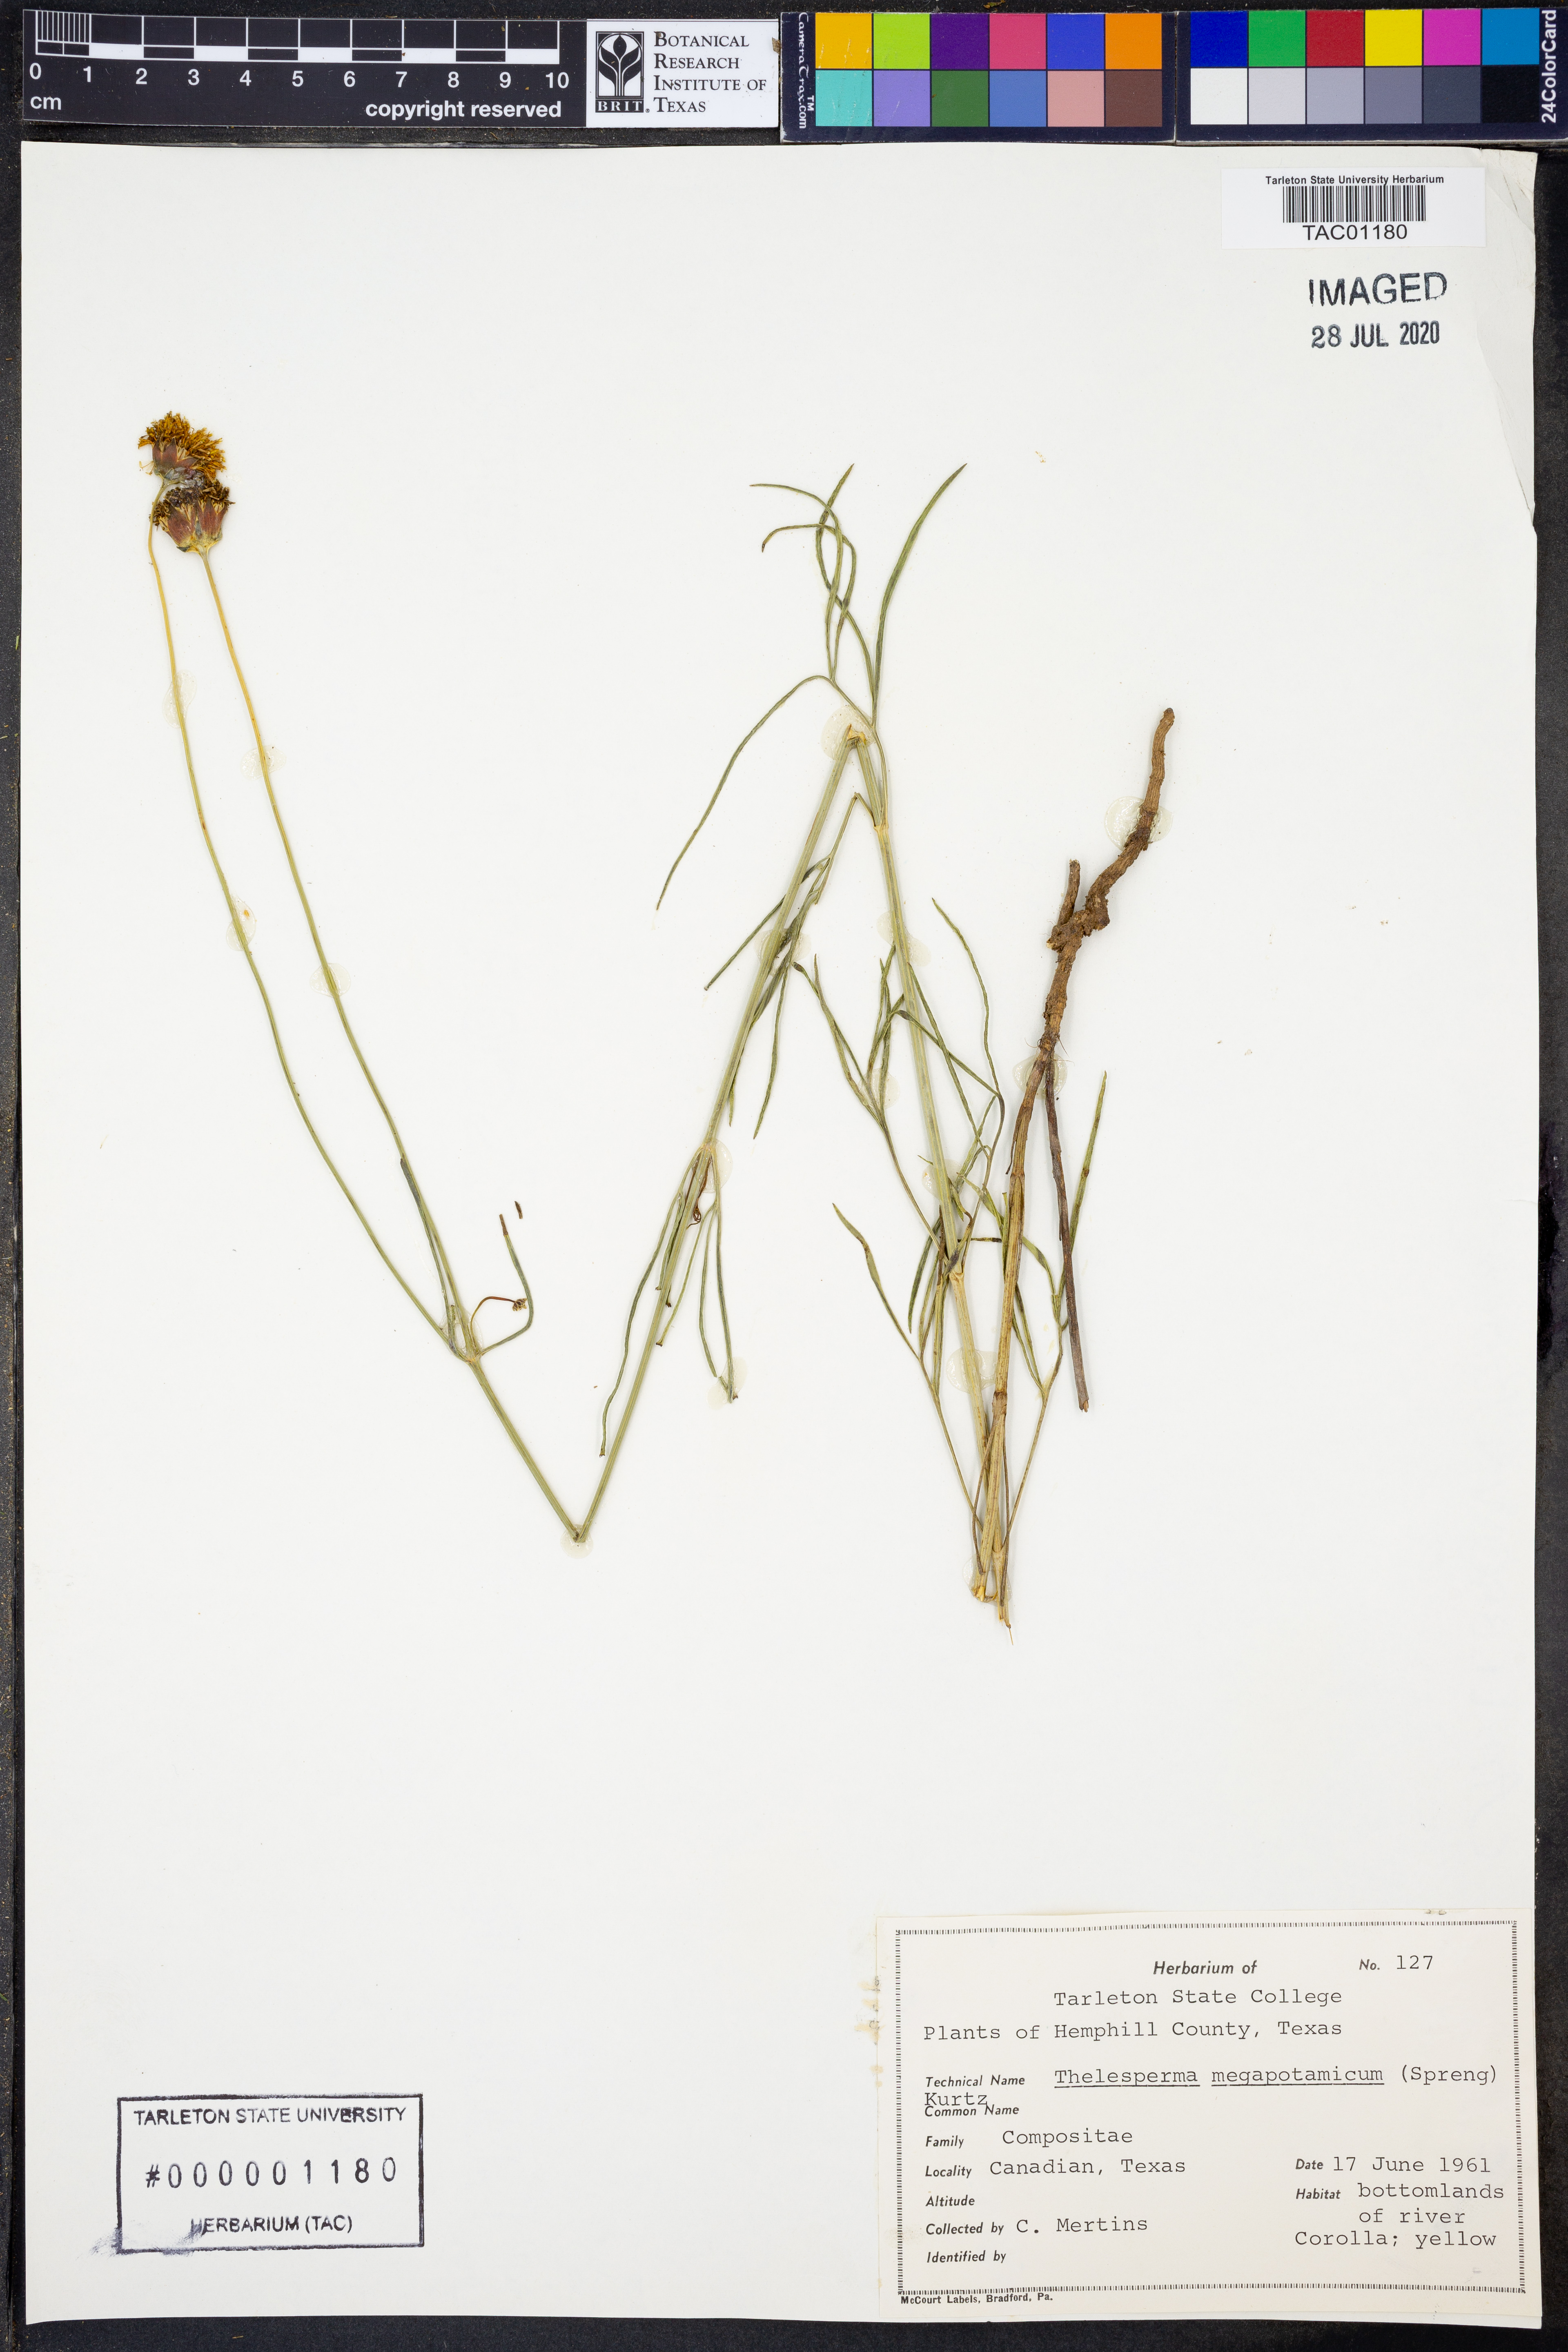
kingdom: Plantae
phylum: Tracheophyta
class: Magnoliopsida
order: Asterales
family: Asteraceae
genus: Thelesperma
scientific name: Thelesperma megapotamicum
